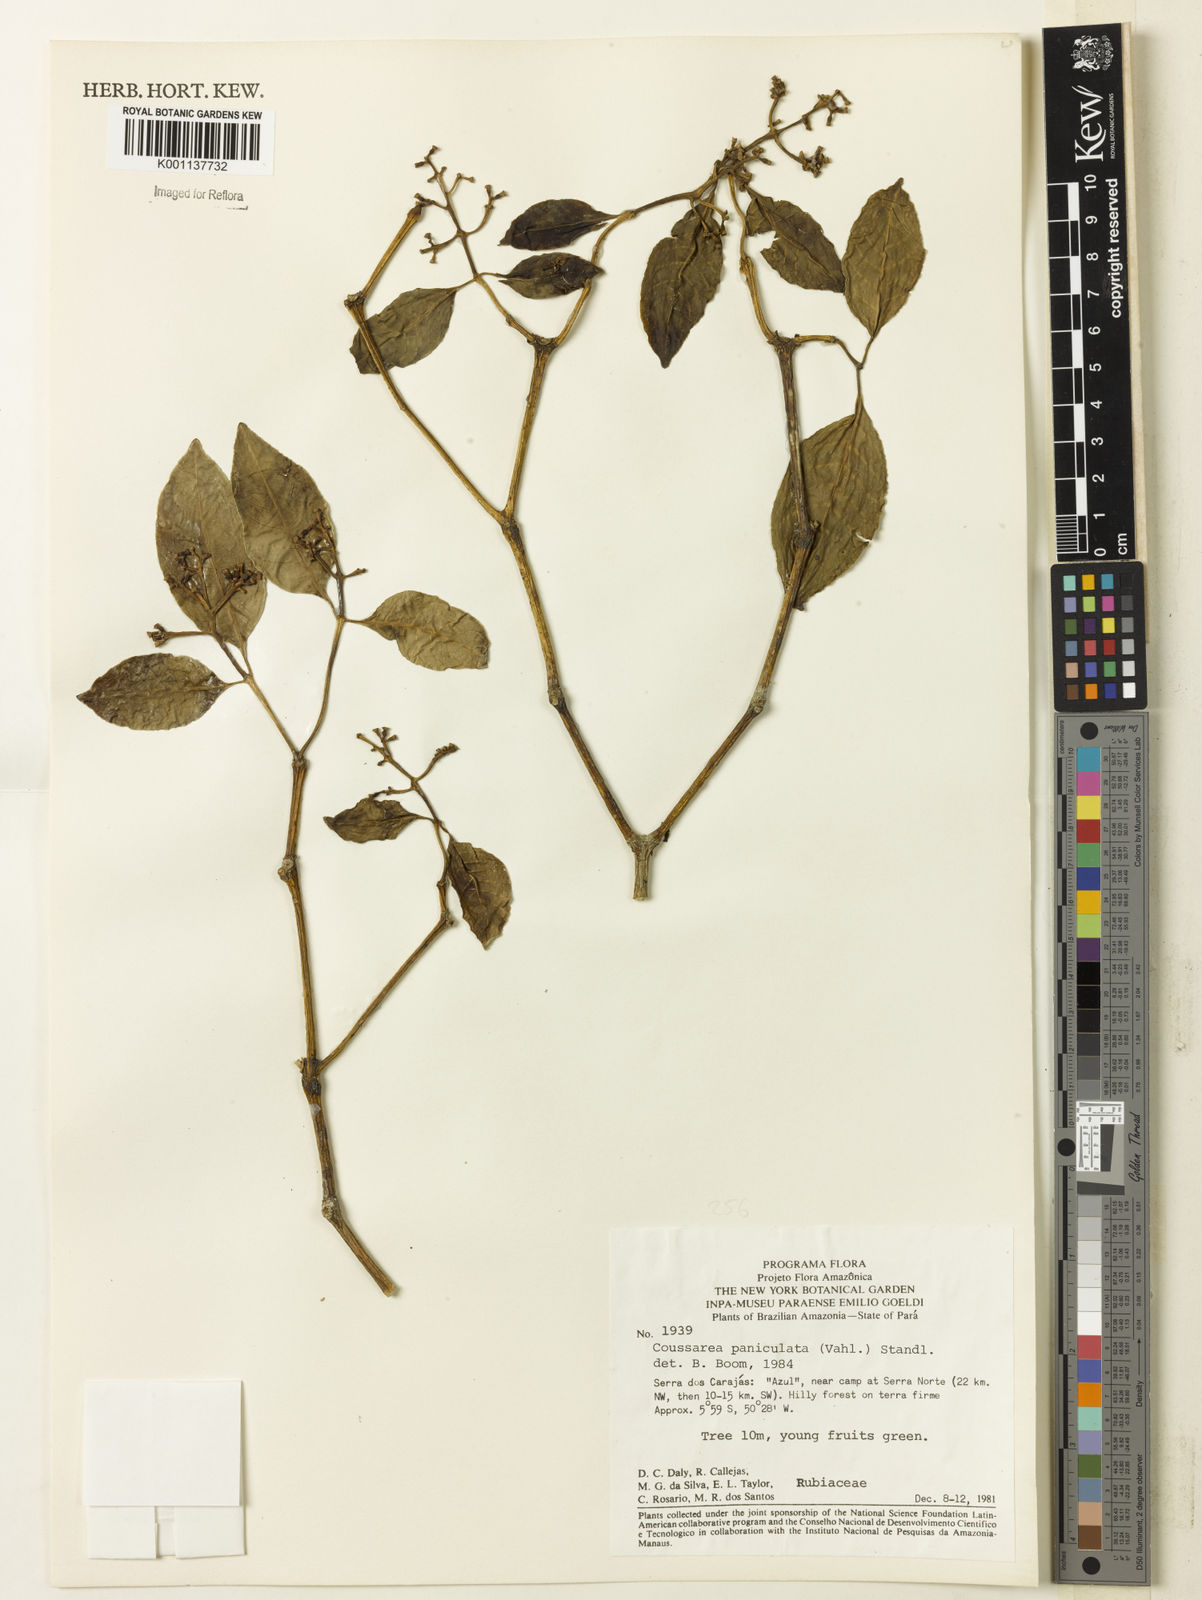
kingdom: Plantae
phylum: Tracheophyta
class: Magnoliopsida
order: Gentianales
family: Rubiaceae
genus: Coussarea
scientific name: Coussarea paniculata
